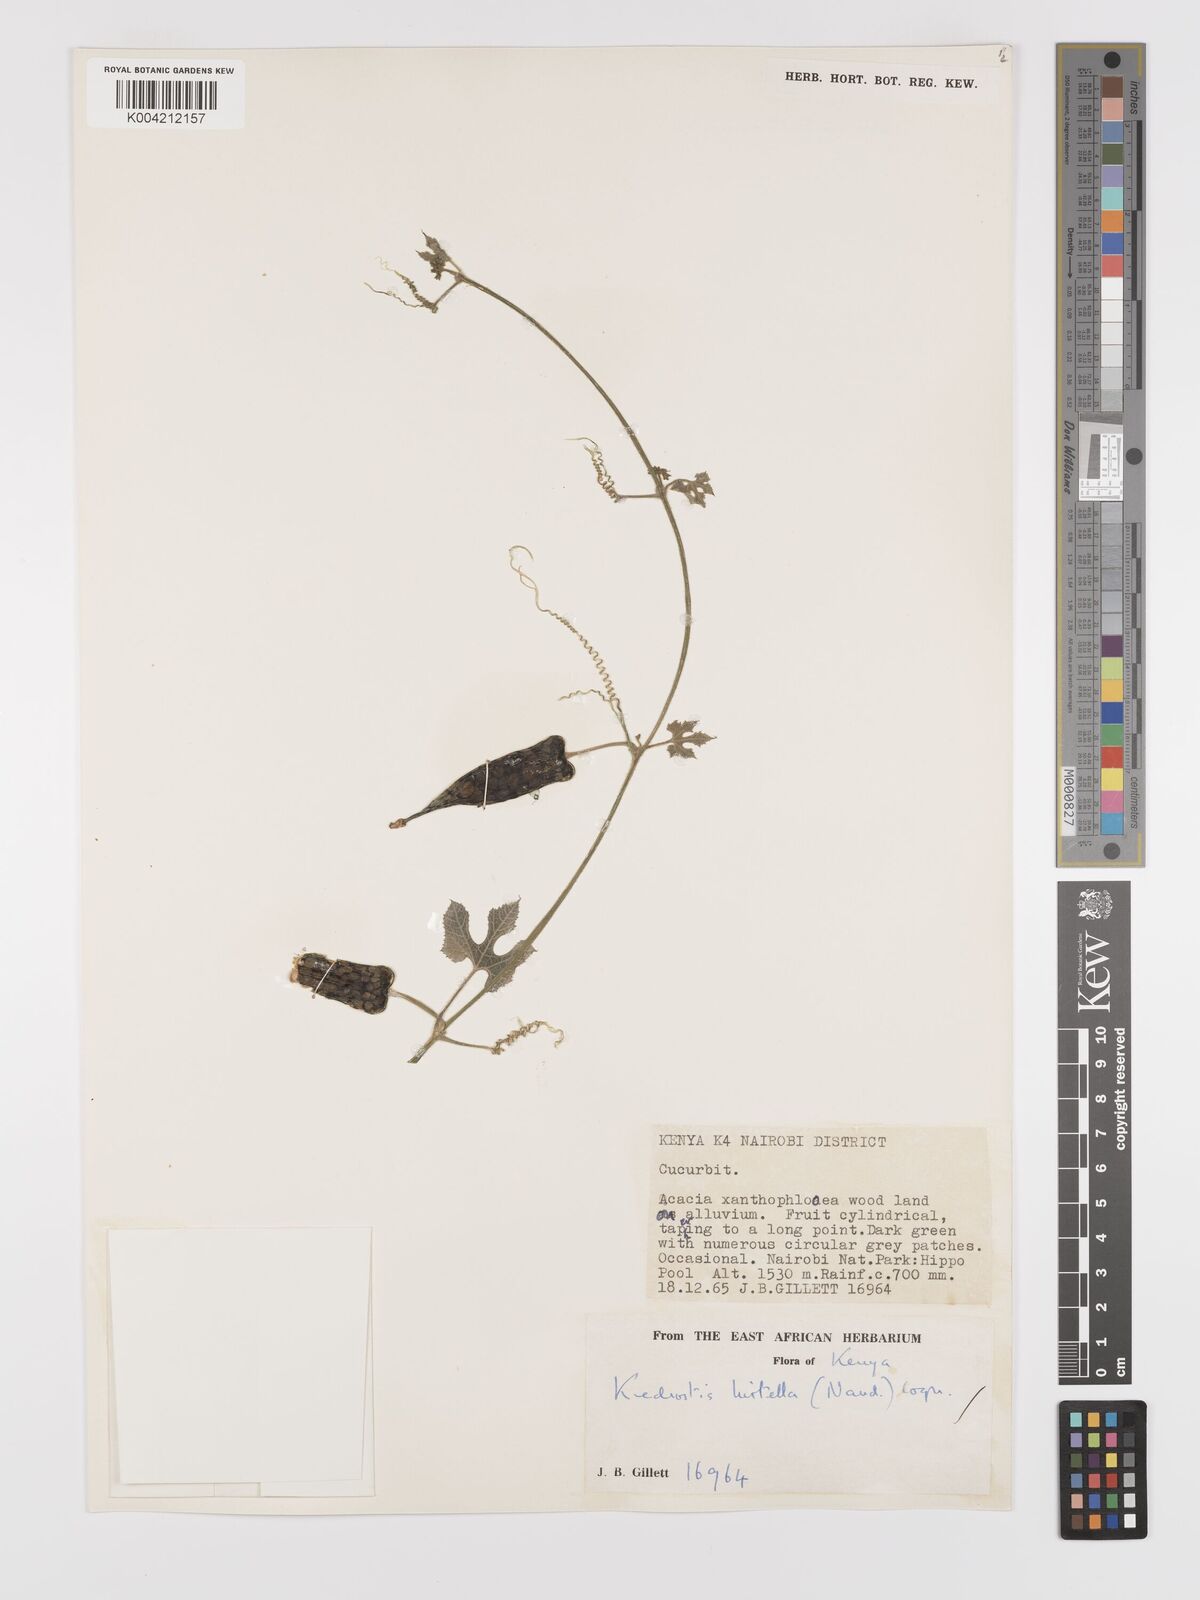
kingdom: Plantae
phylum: Tracheophyta
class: Magnoliopsida
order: Cucurbitales
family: Cucurbitaceae
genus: Kedrostis
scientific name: Kedrostis leloja
